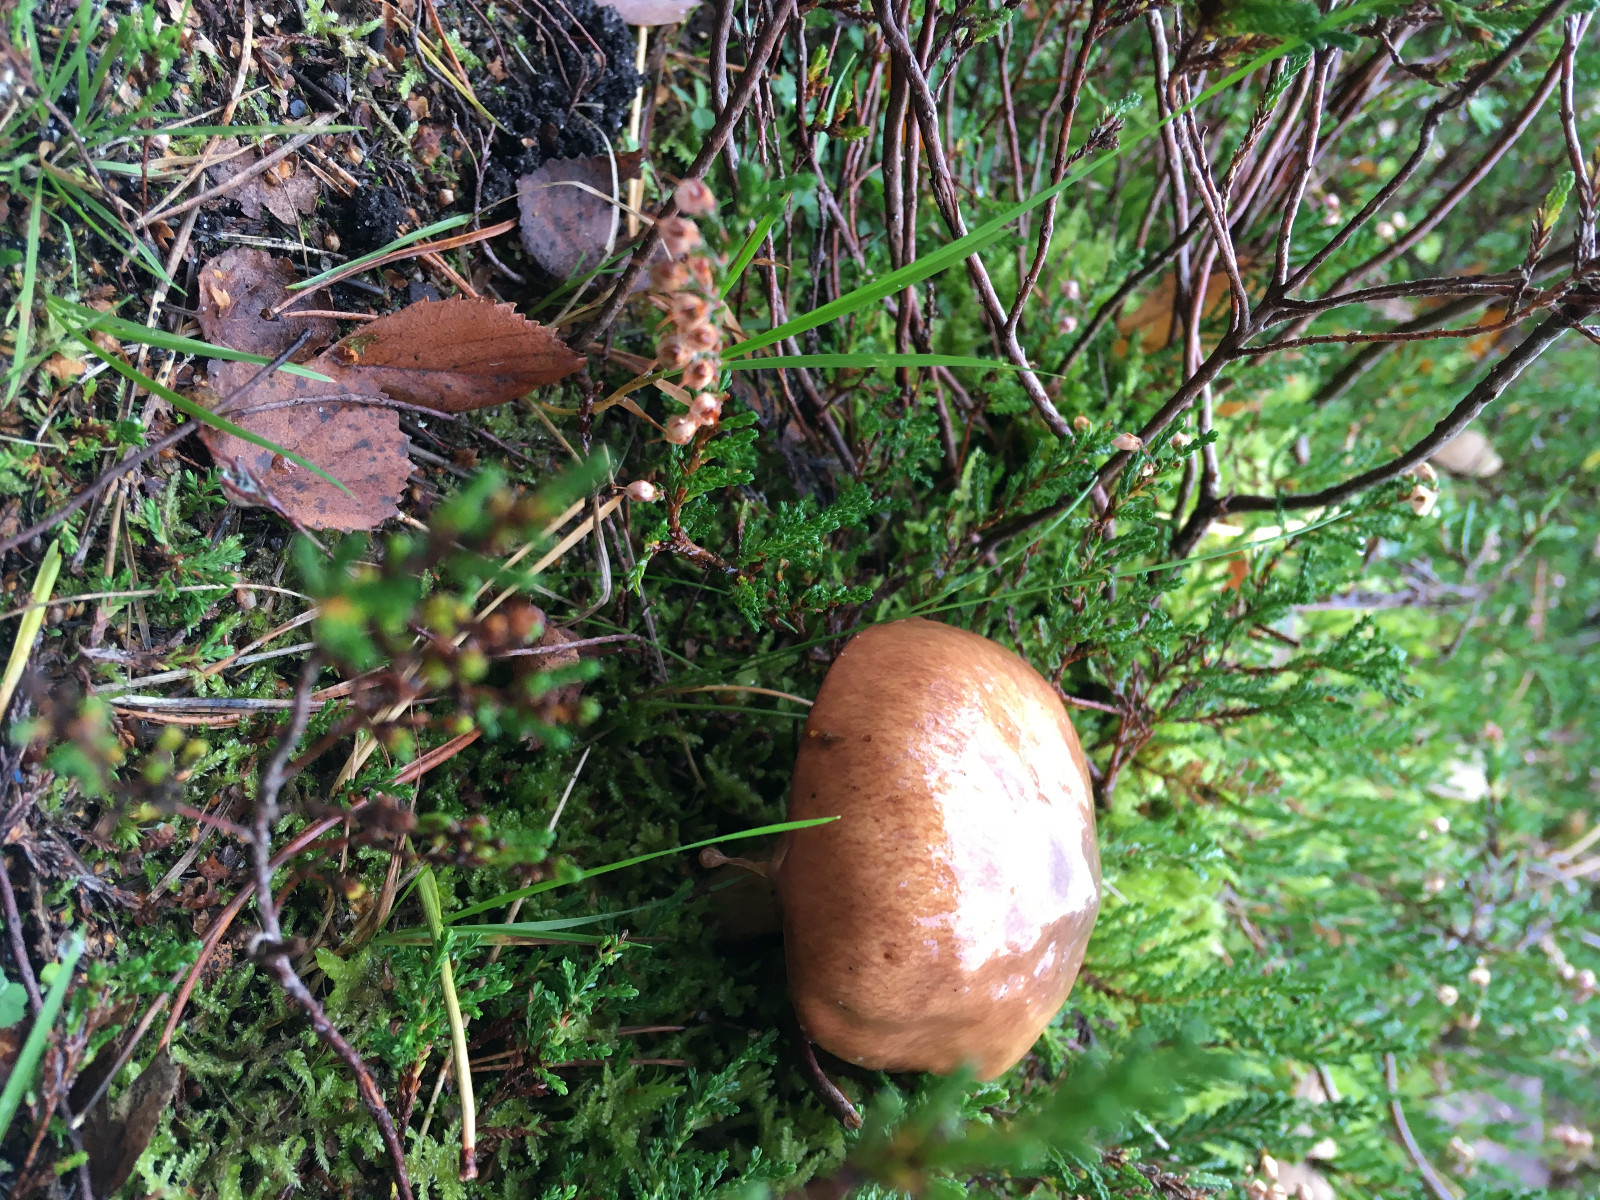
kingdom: Fungi
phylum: Basidiomycota
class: Agaricomycetes
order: Boletales
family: Suillaceae
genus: Suillus
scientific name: Suillus luteus
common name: brungul slimrørhat
